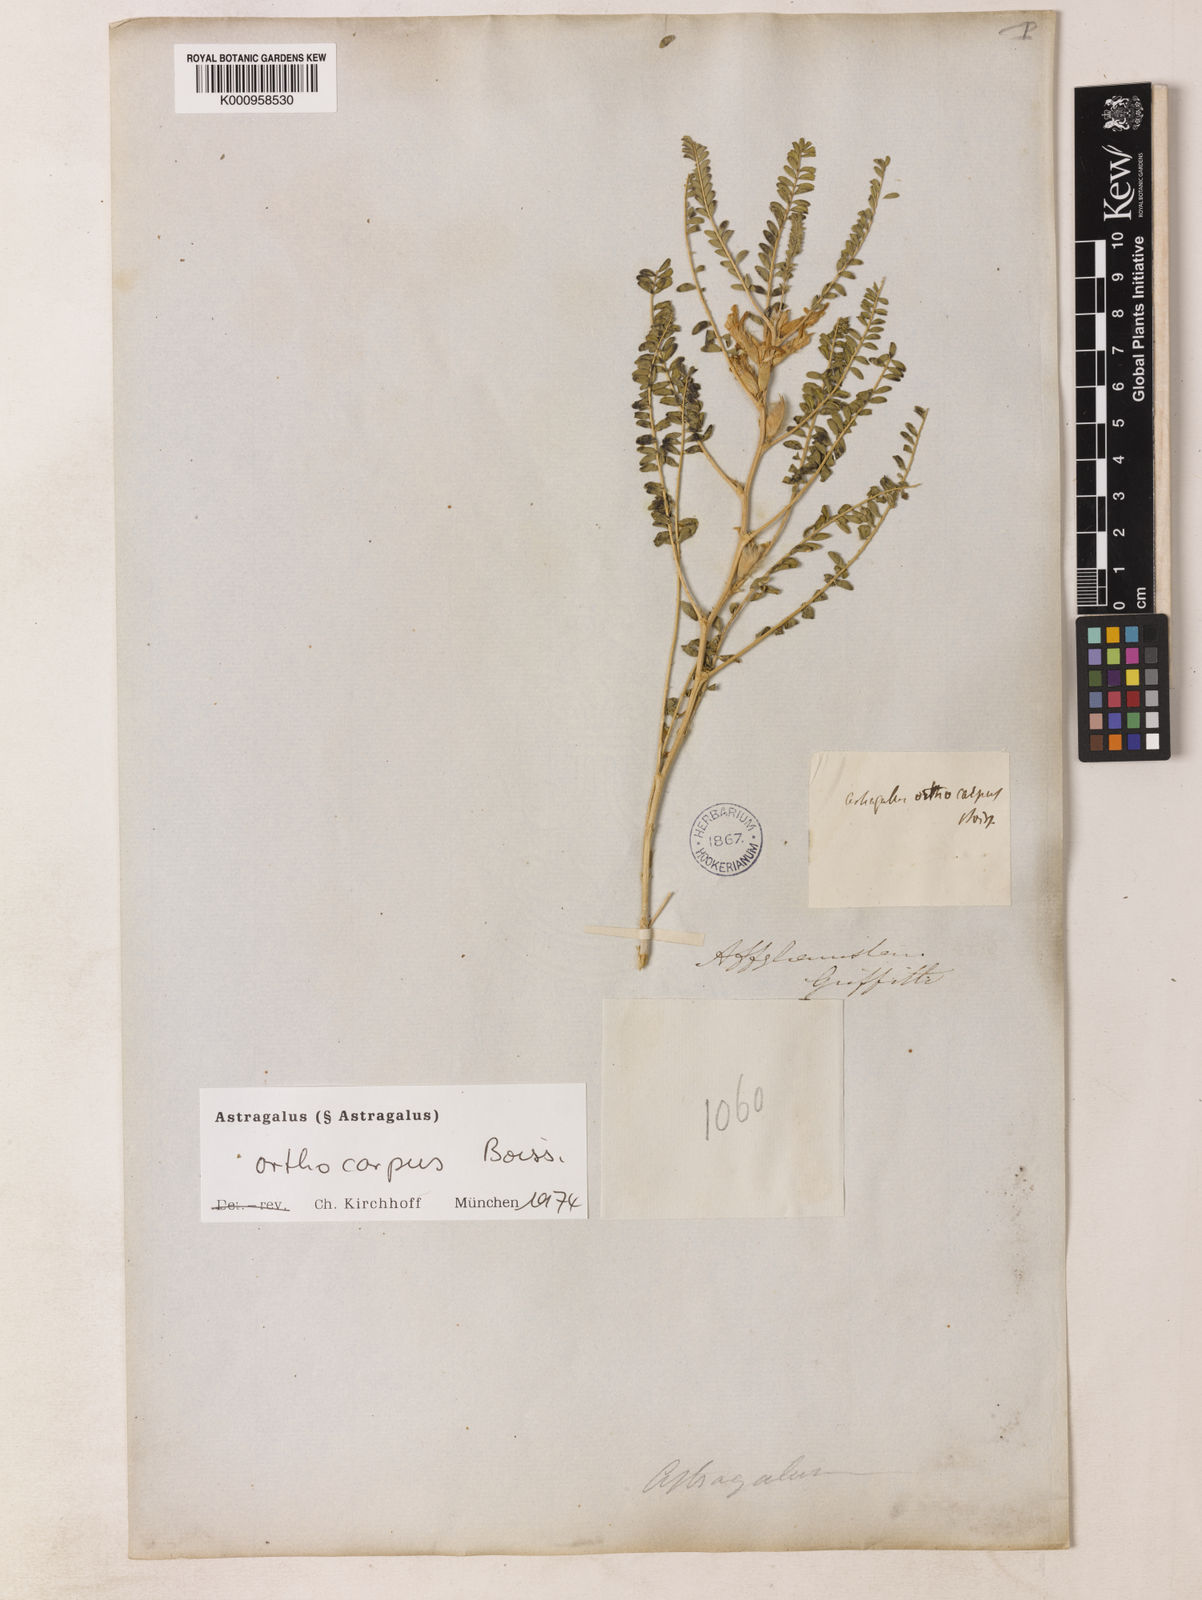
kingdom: Plantae
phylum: Tracheophyta
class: Magnoliopsida
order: Fabales
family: Fabaceae
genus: Astragalus
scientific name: Astragalus
